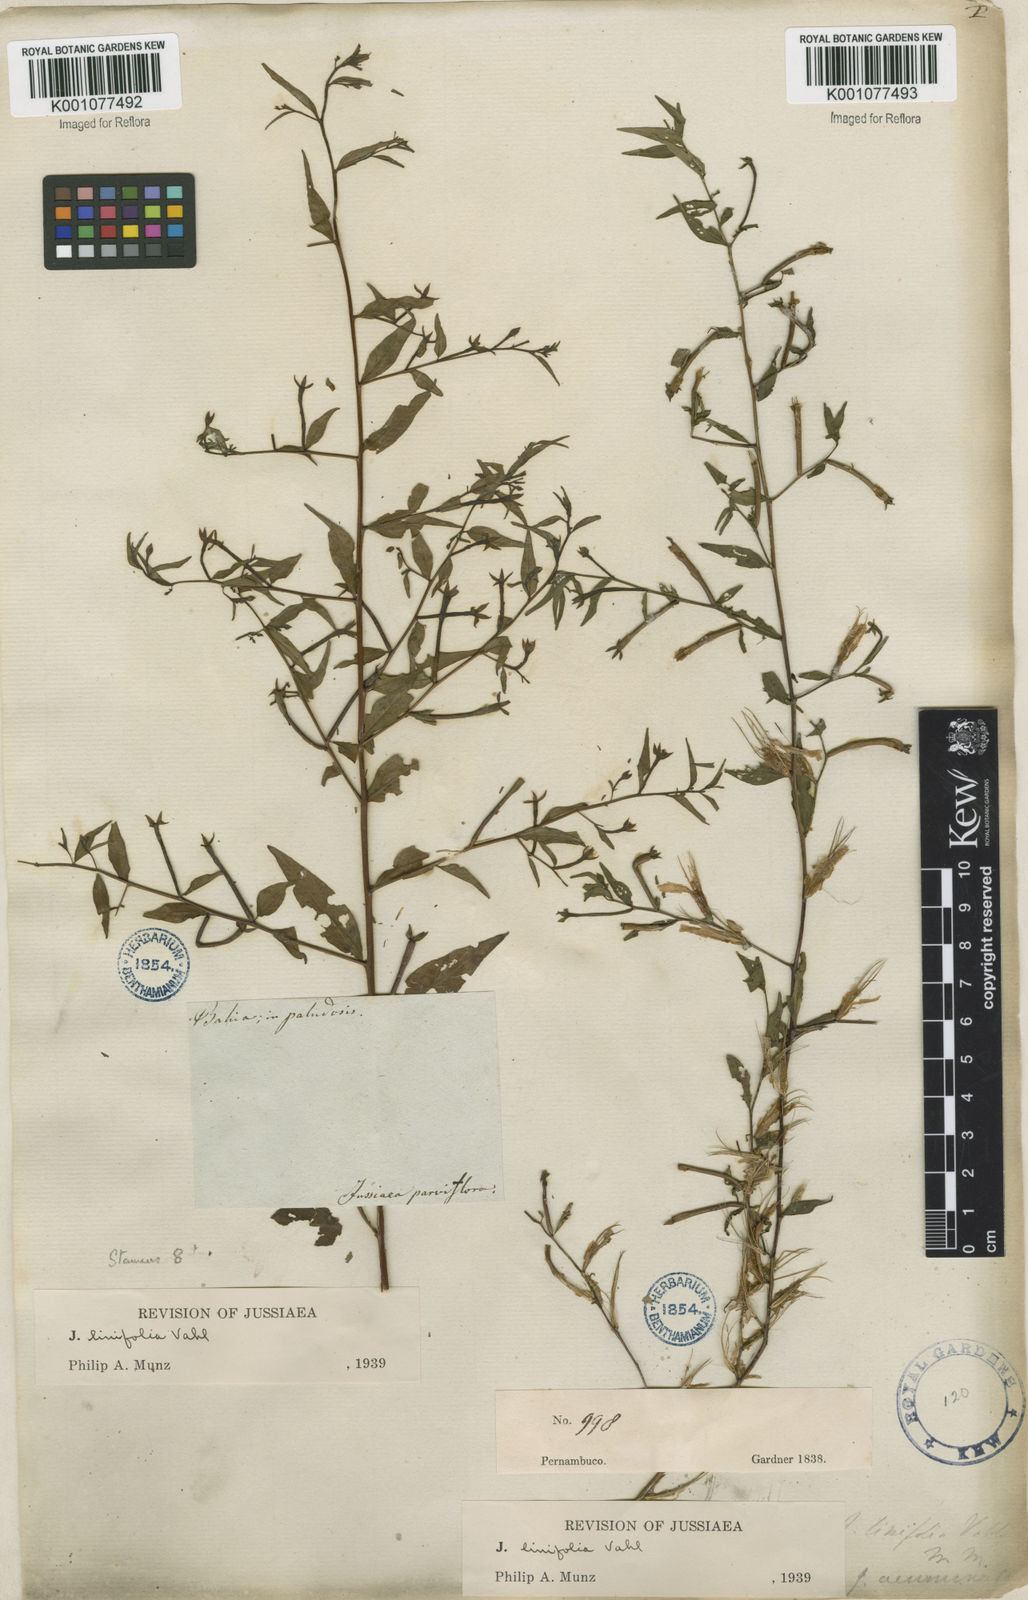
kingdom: Plantae
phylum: Tracheophyta
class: Magnoliopsida
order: Myrtales
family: Onagraceae
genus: Ludwigia
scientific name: Ludwigia hyssopifolia
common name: Linear leaf water primrose
